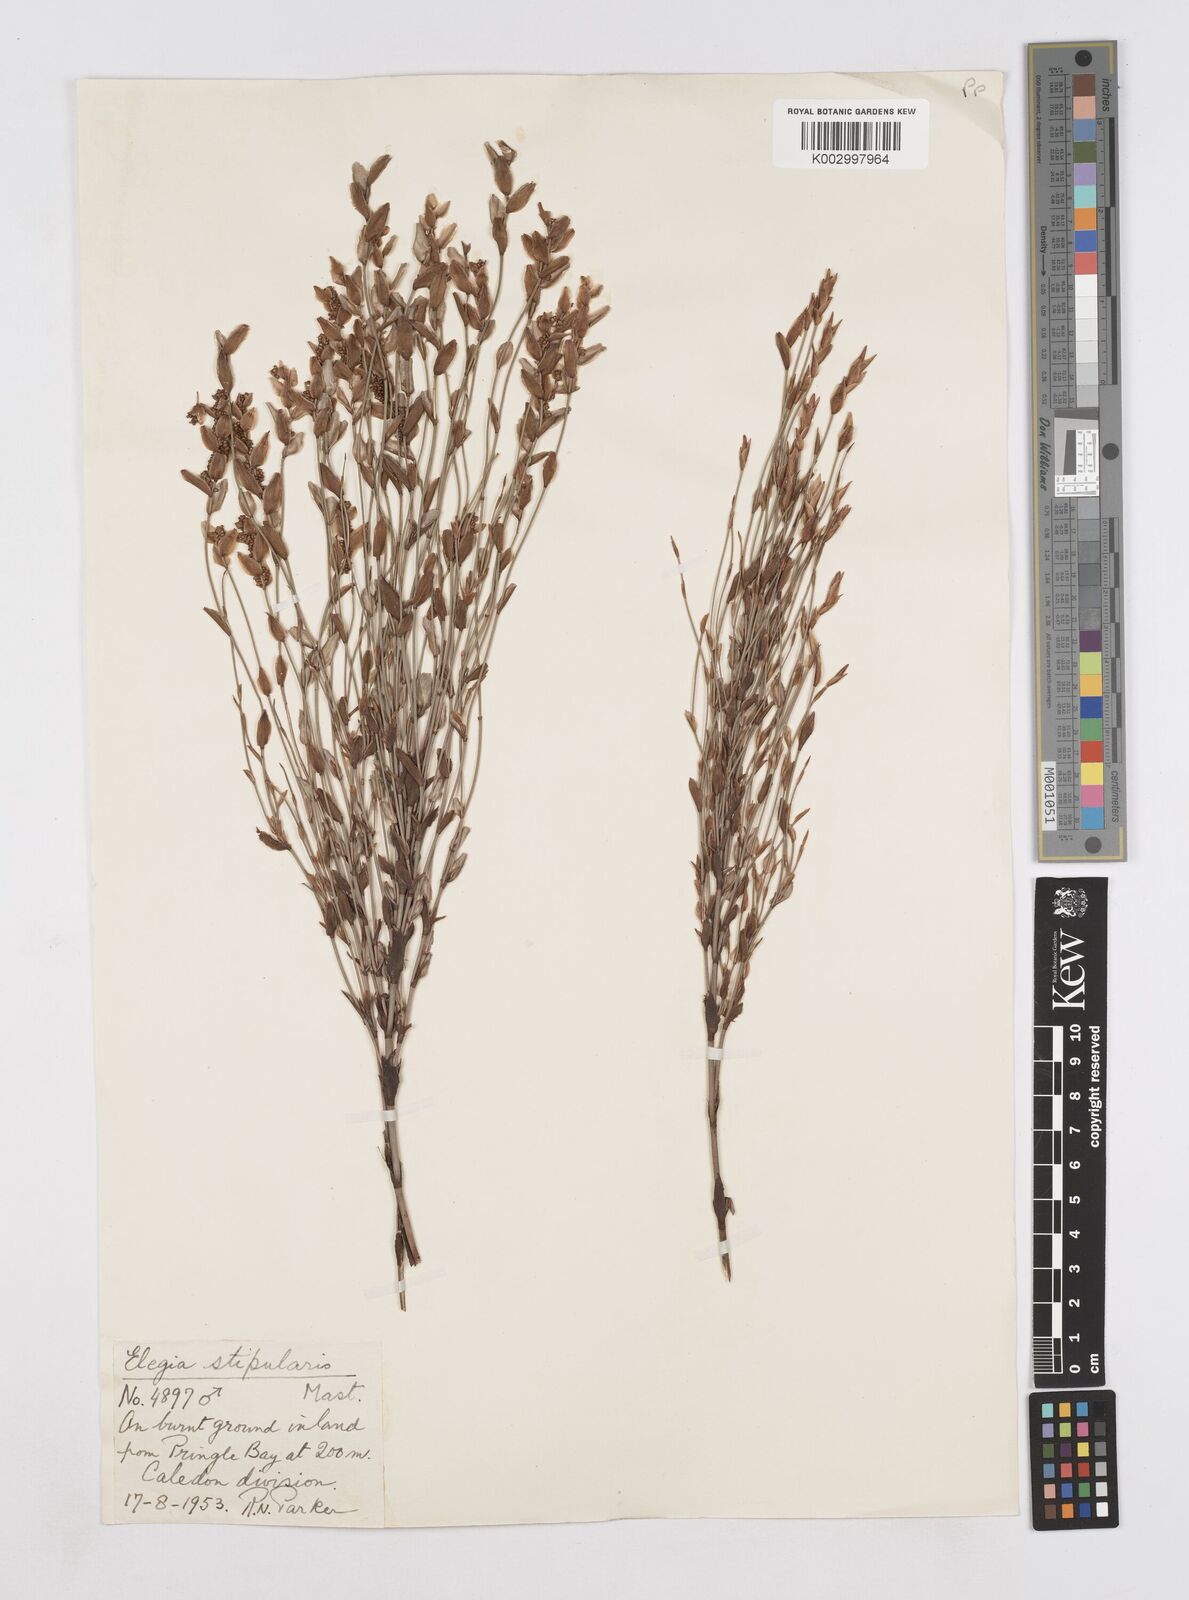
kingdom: Plantae
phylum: Tracheophyta
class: Liliopsida
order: Poales
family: Restionaceae
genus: Elegia
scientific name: Elegia stipularis
